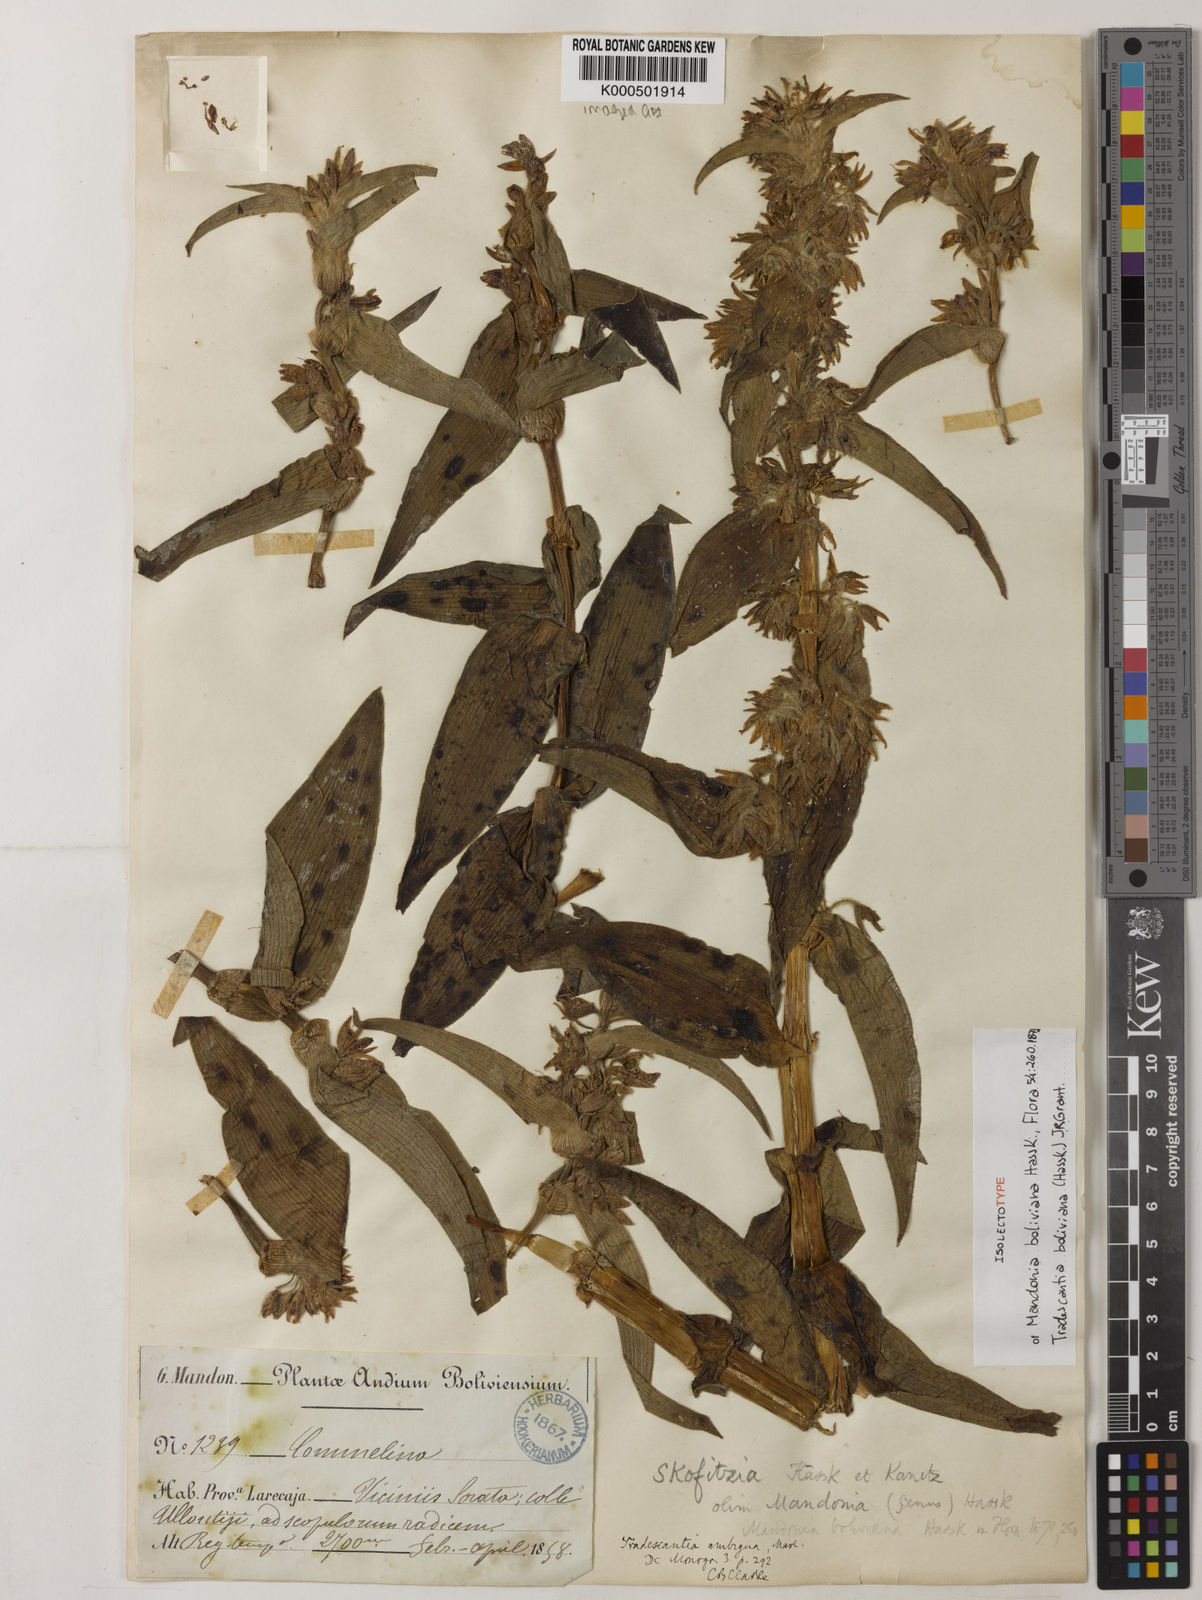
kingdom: Plantae
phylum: Tracheophyta
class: Liliopsida
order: Commelinales
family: Commelinaceae
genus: Tradescantia
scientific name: Tradescantia boliviana
